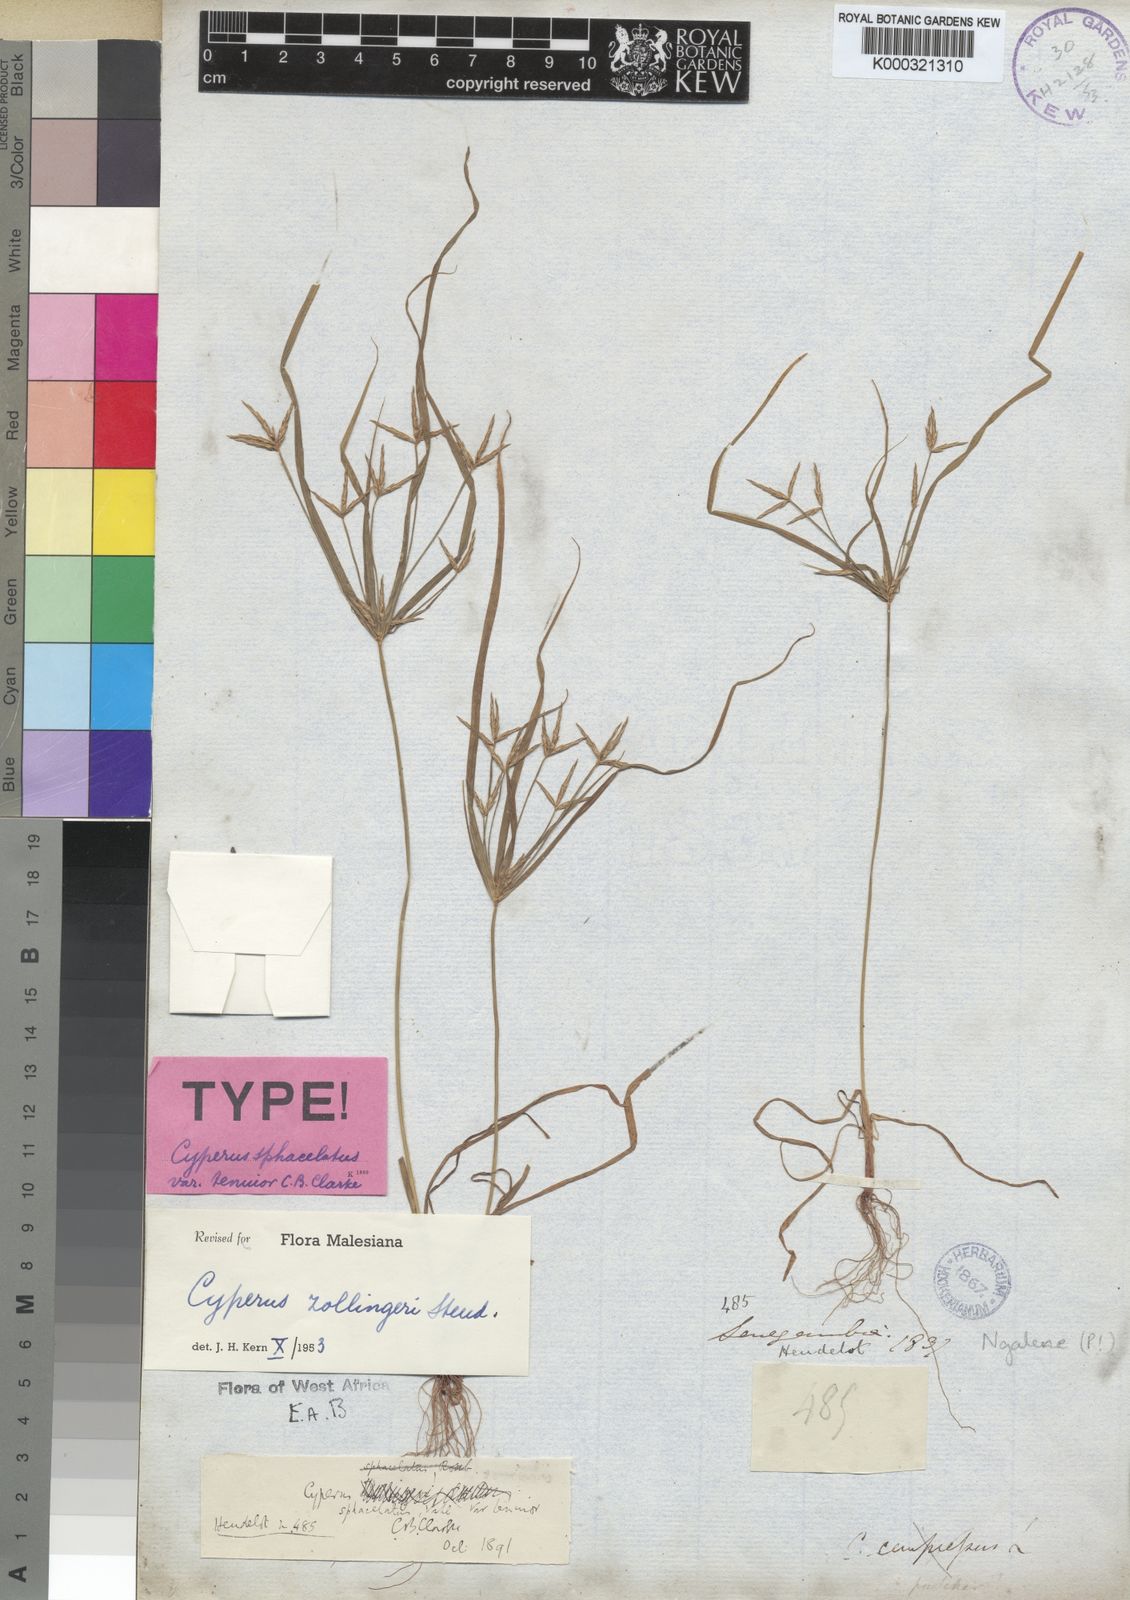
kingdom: Plantae
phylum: Tracheophyta
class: Liliopsida
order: Poales
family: Cyperaceae
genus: Cyperus
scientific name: Cyperus zollingeri
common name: Roadside flatsedge
